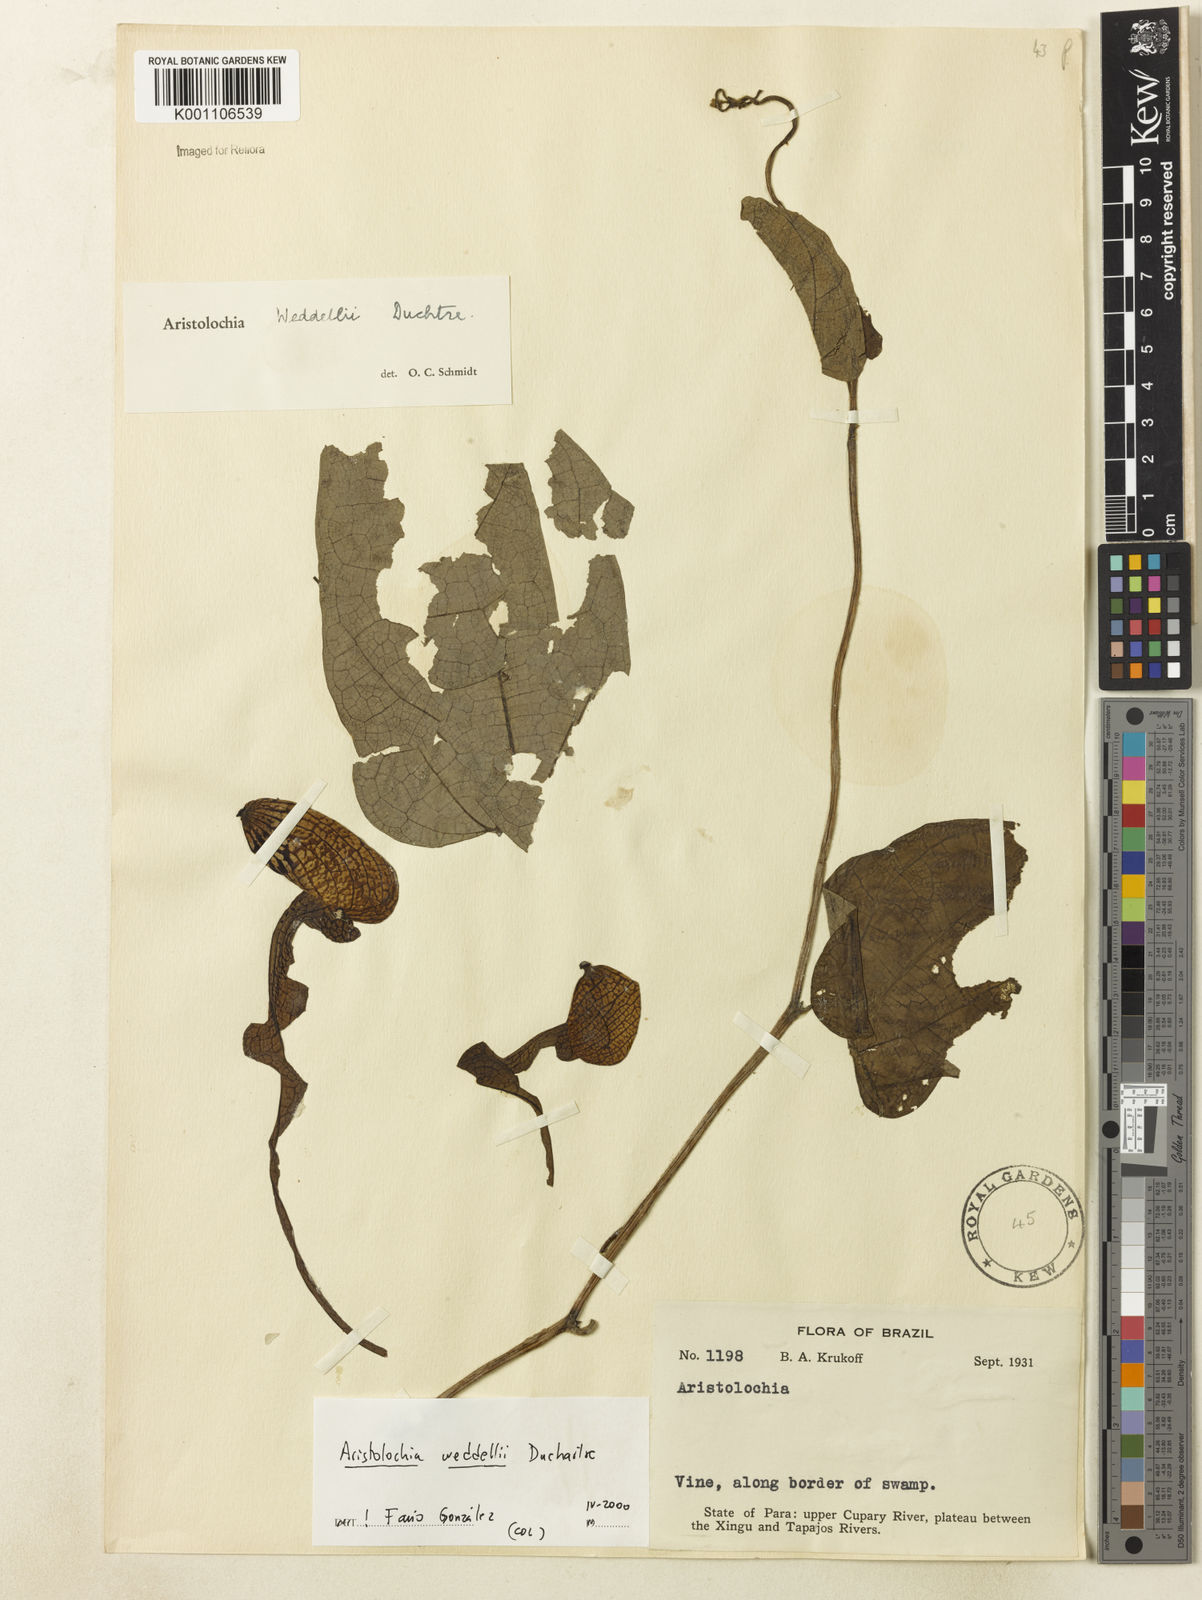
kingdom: Plantae
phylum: Tracheophyta
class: Magnoliopsida
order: Piperales
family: Aristolochiaceae
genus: Aristolochia
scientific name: Aristolochia weddellii
